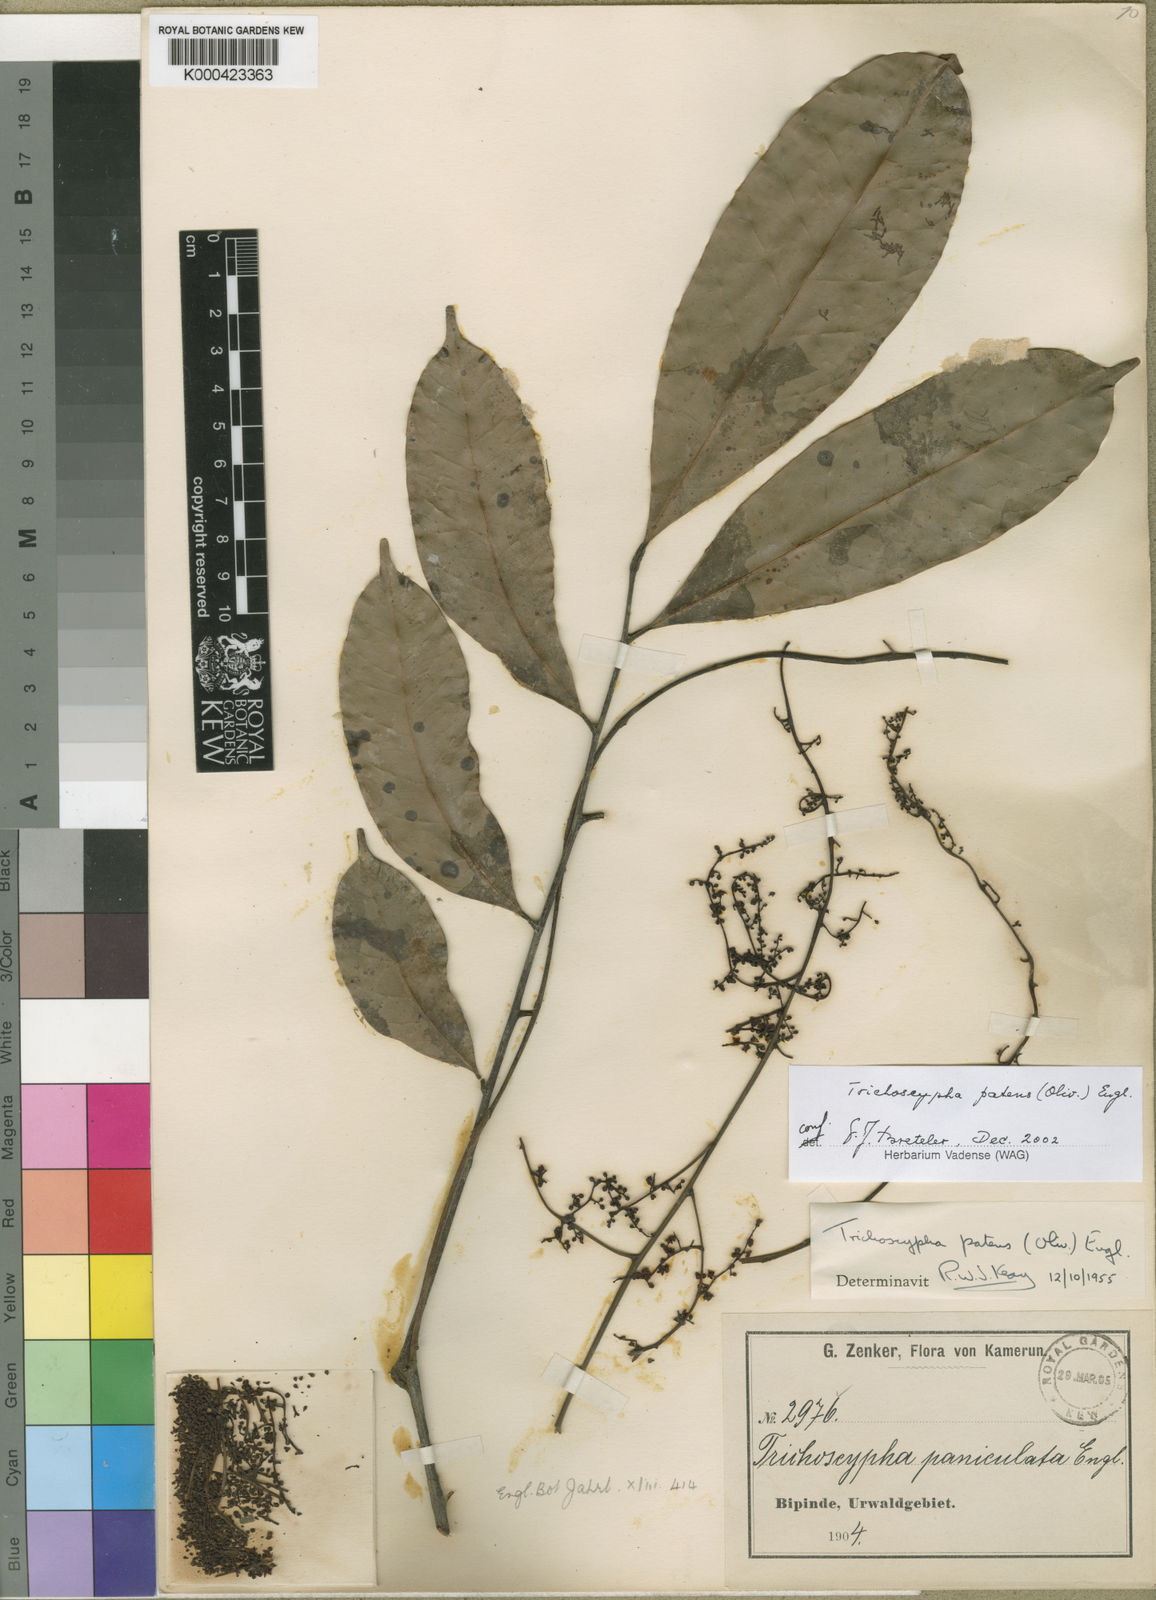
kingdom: Plantae
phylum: Tracheophyta
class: Magnoliopsida
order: Sapindales
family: Anacardiaceae
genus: Trichoscypha
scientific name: Trichoscypha patens
